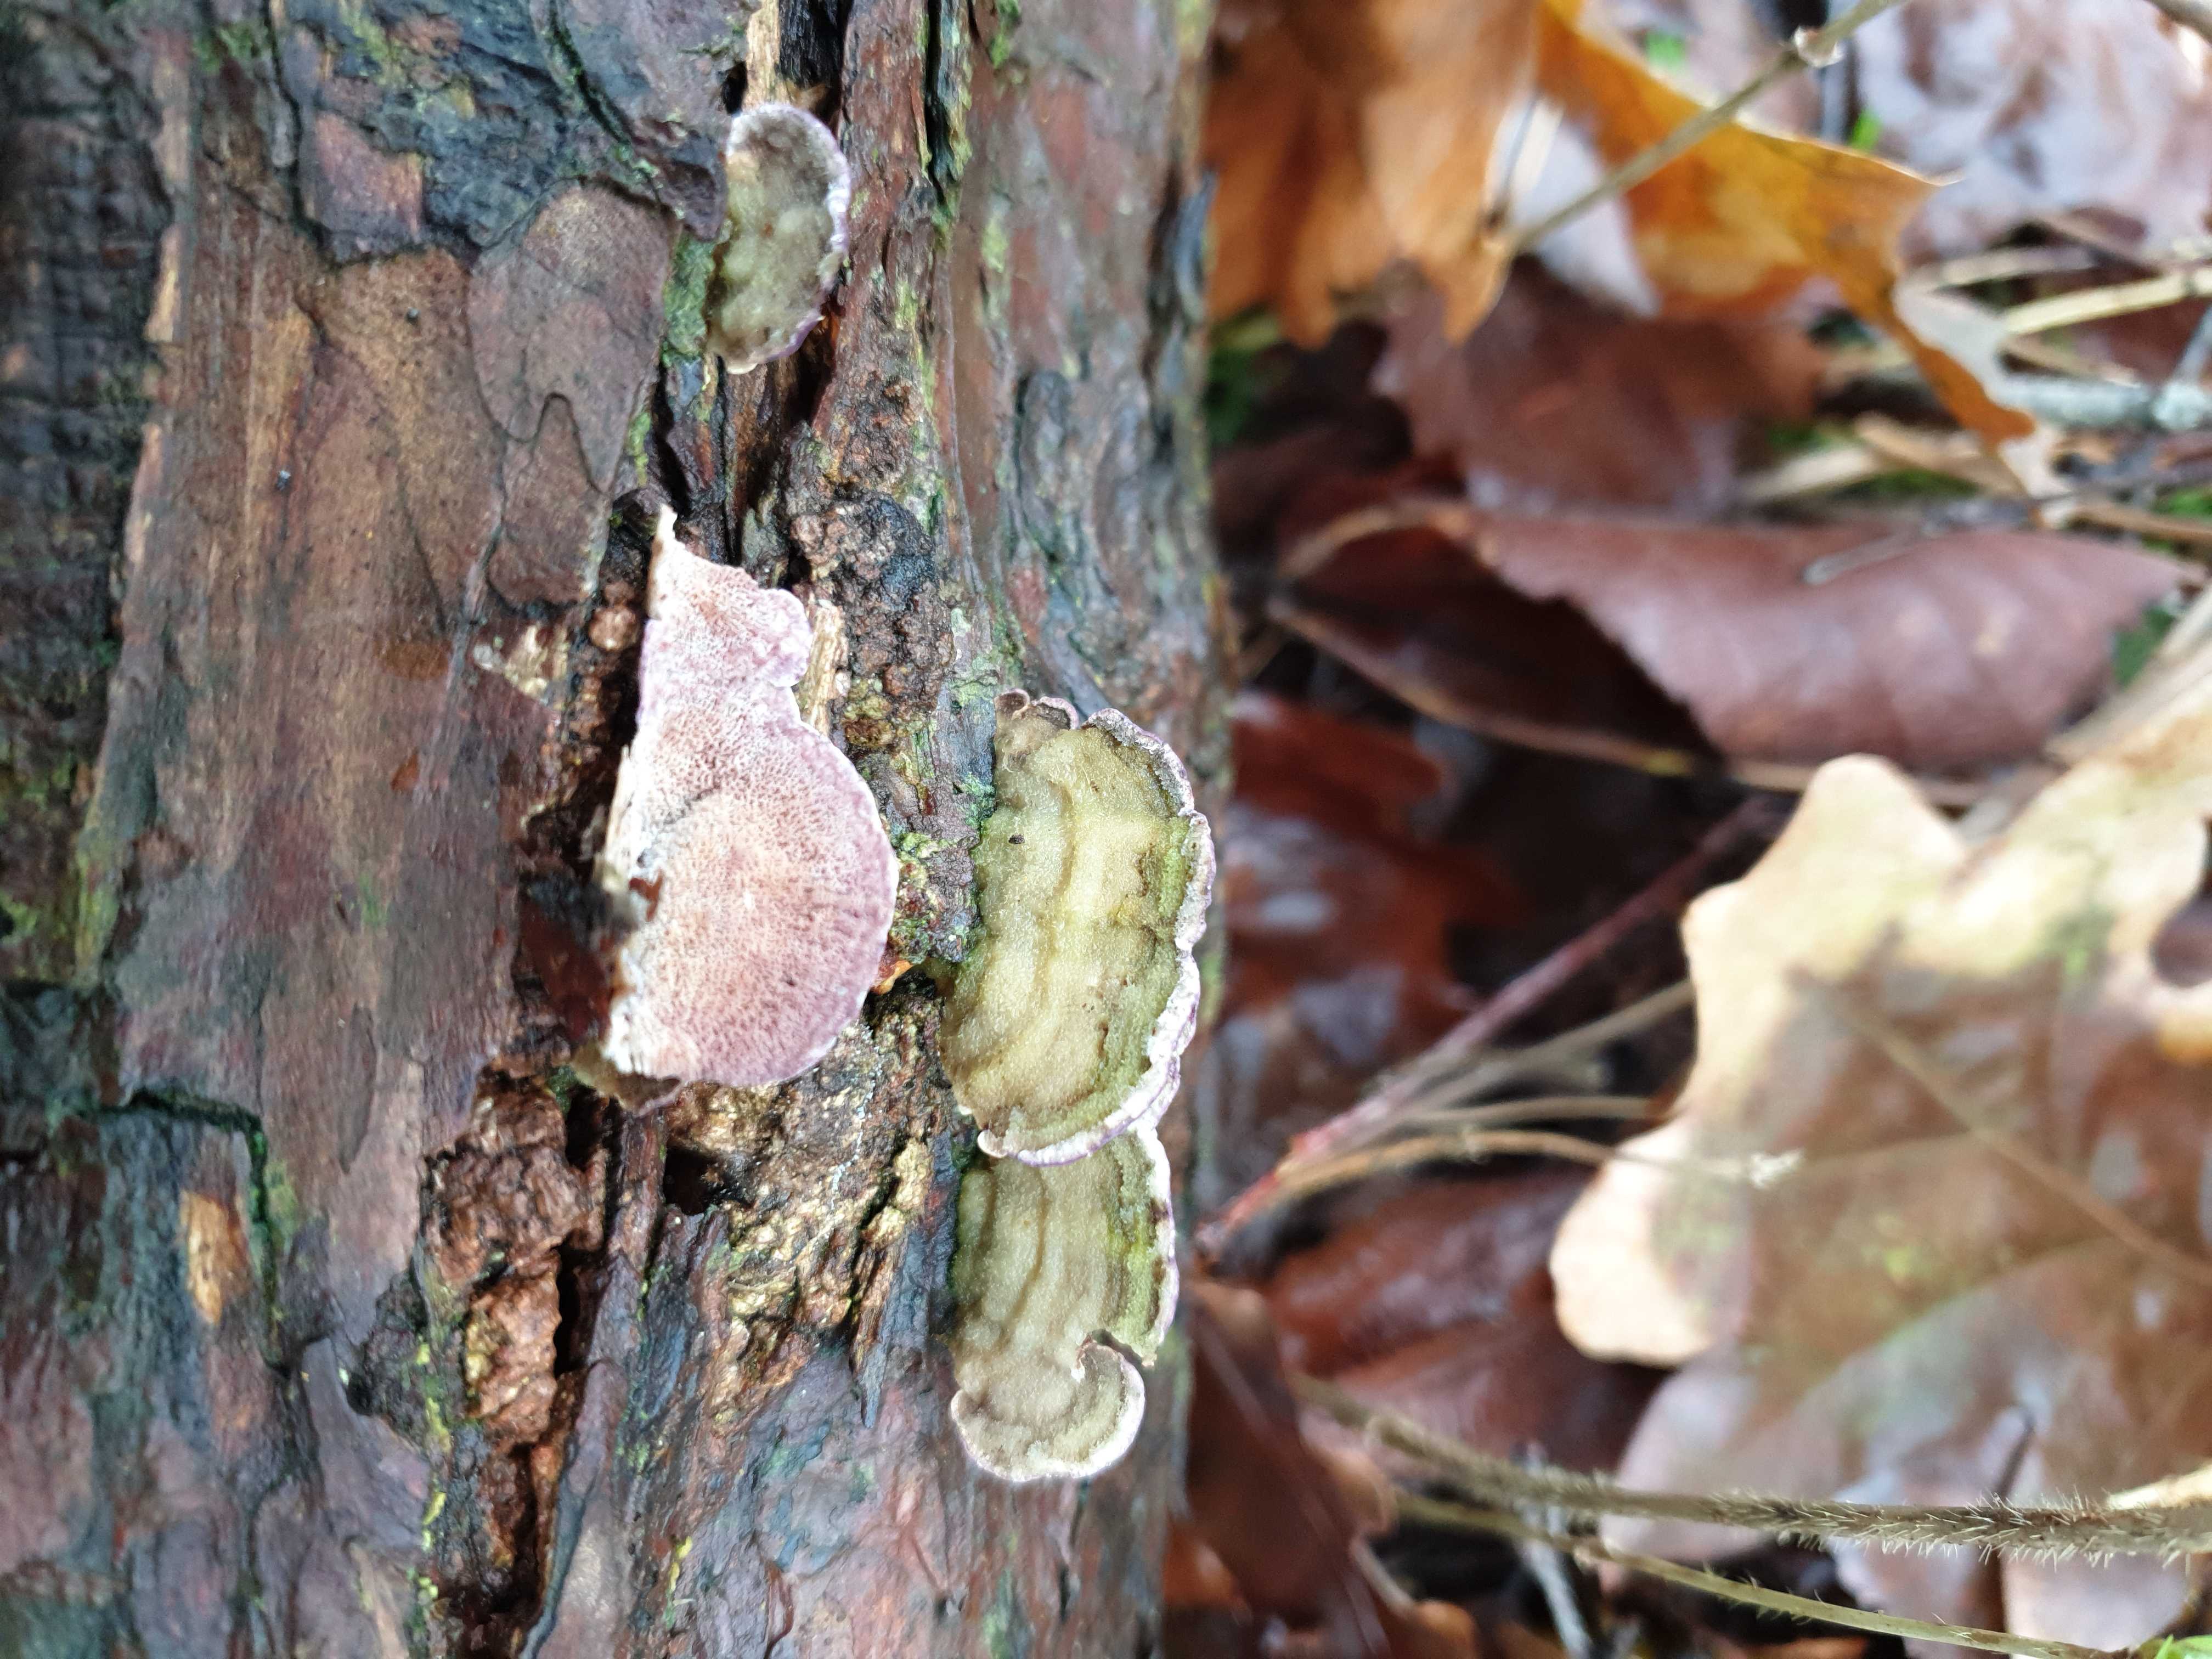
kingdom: Fungi
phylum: Basidiomycota
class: Agaricomycetes
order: Polyporales
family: Polyporaceae
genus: Trichaptum
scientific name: Trichaptum
